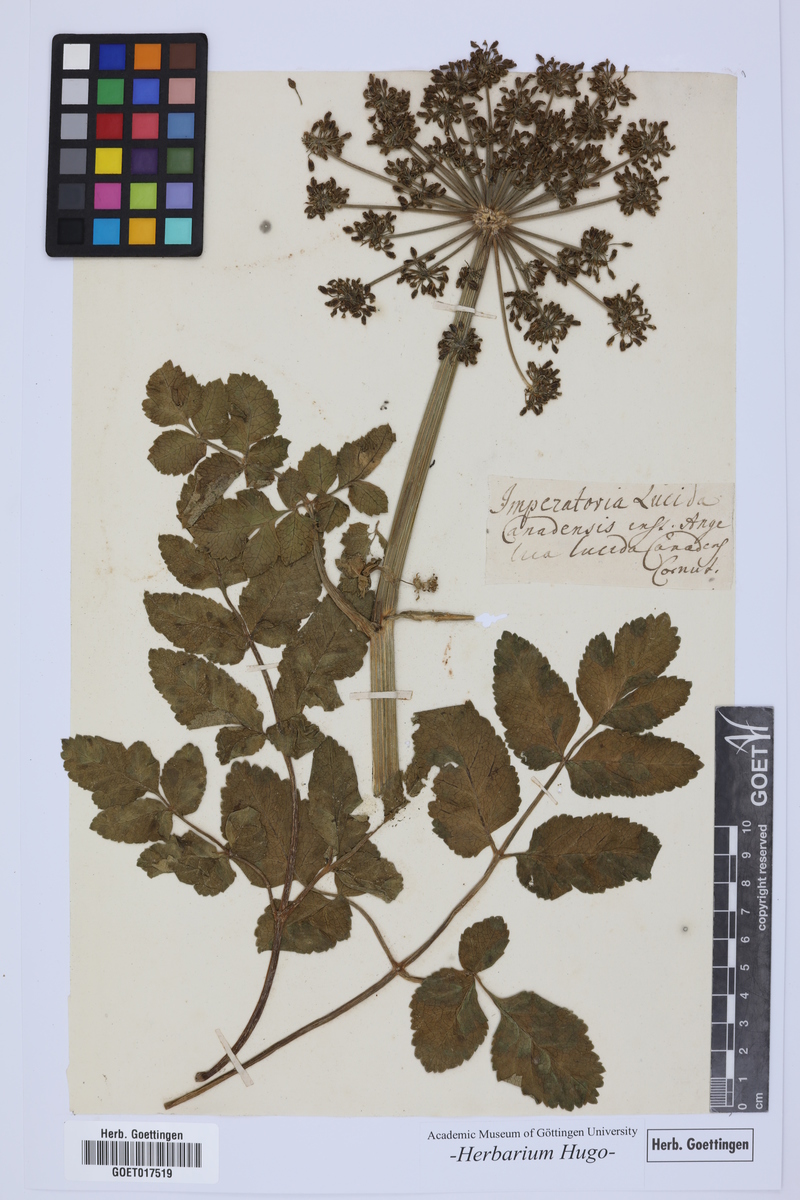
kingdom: Plantae
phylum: Tracheophyta
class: Magnoliopsida
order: Apiales
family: Apiaceae
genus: Angelica
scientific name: Angelica lucida
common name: Seabeach angelica
